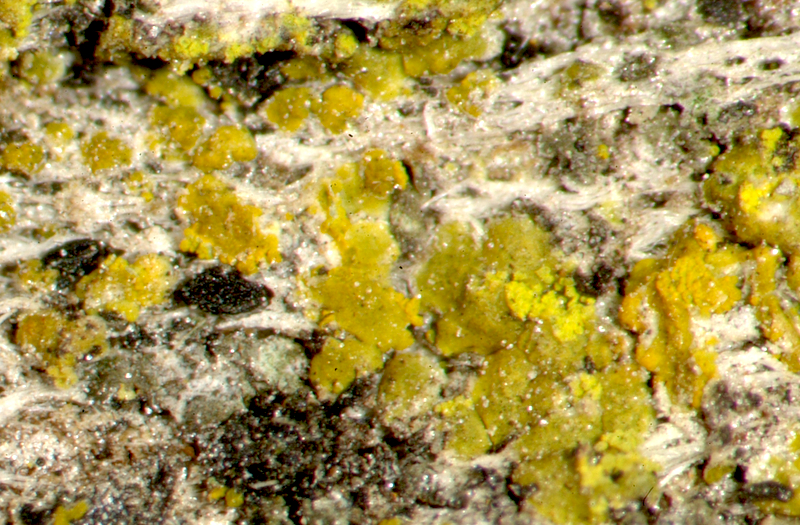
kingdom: Fungi
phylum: Ascomycota
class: Arthoniomycetes
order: Arthoniales
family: Lecanographaceae
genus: Alyxoria
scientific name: Alyxoria varia
